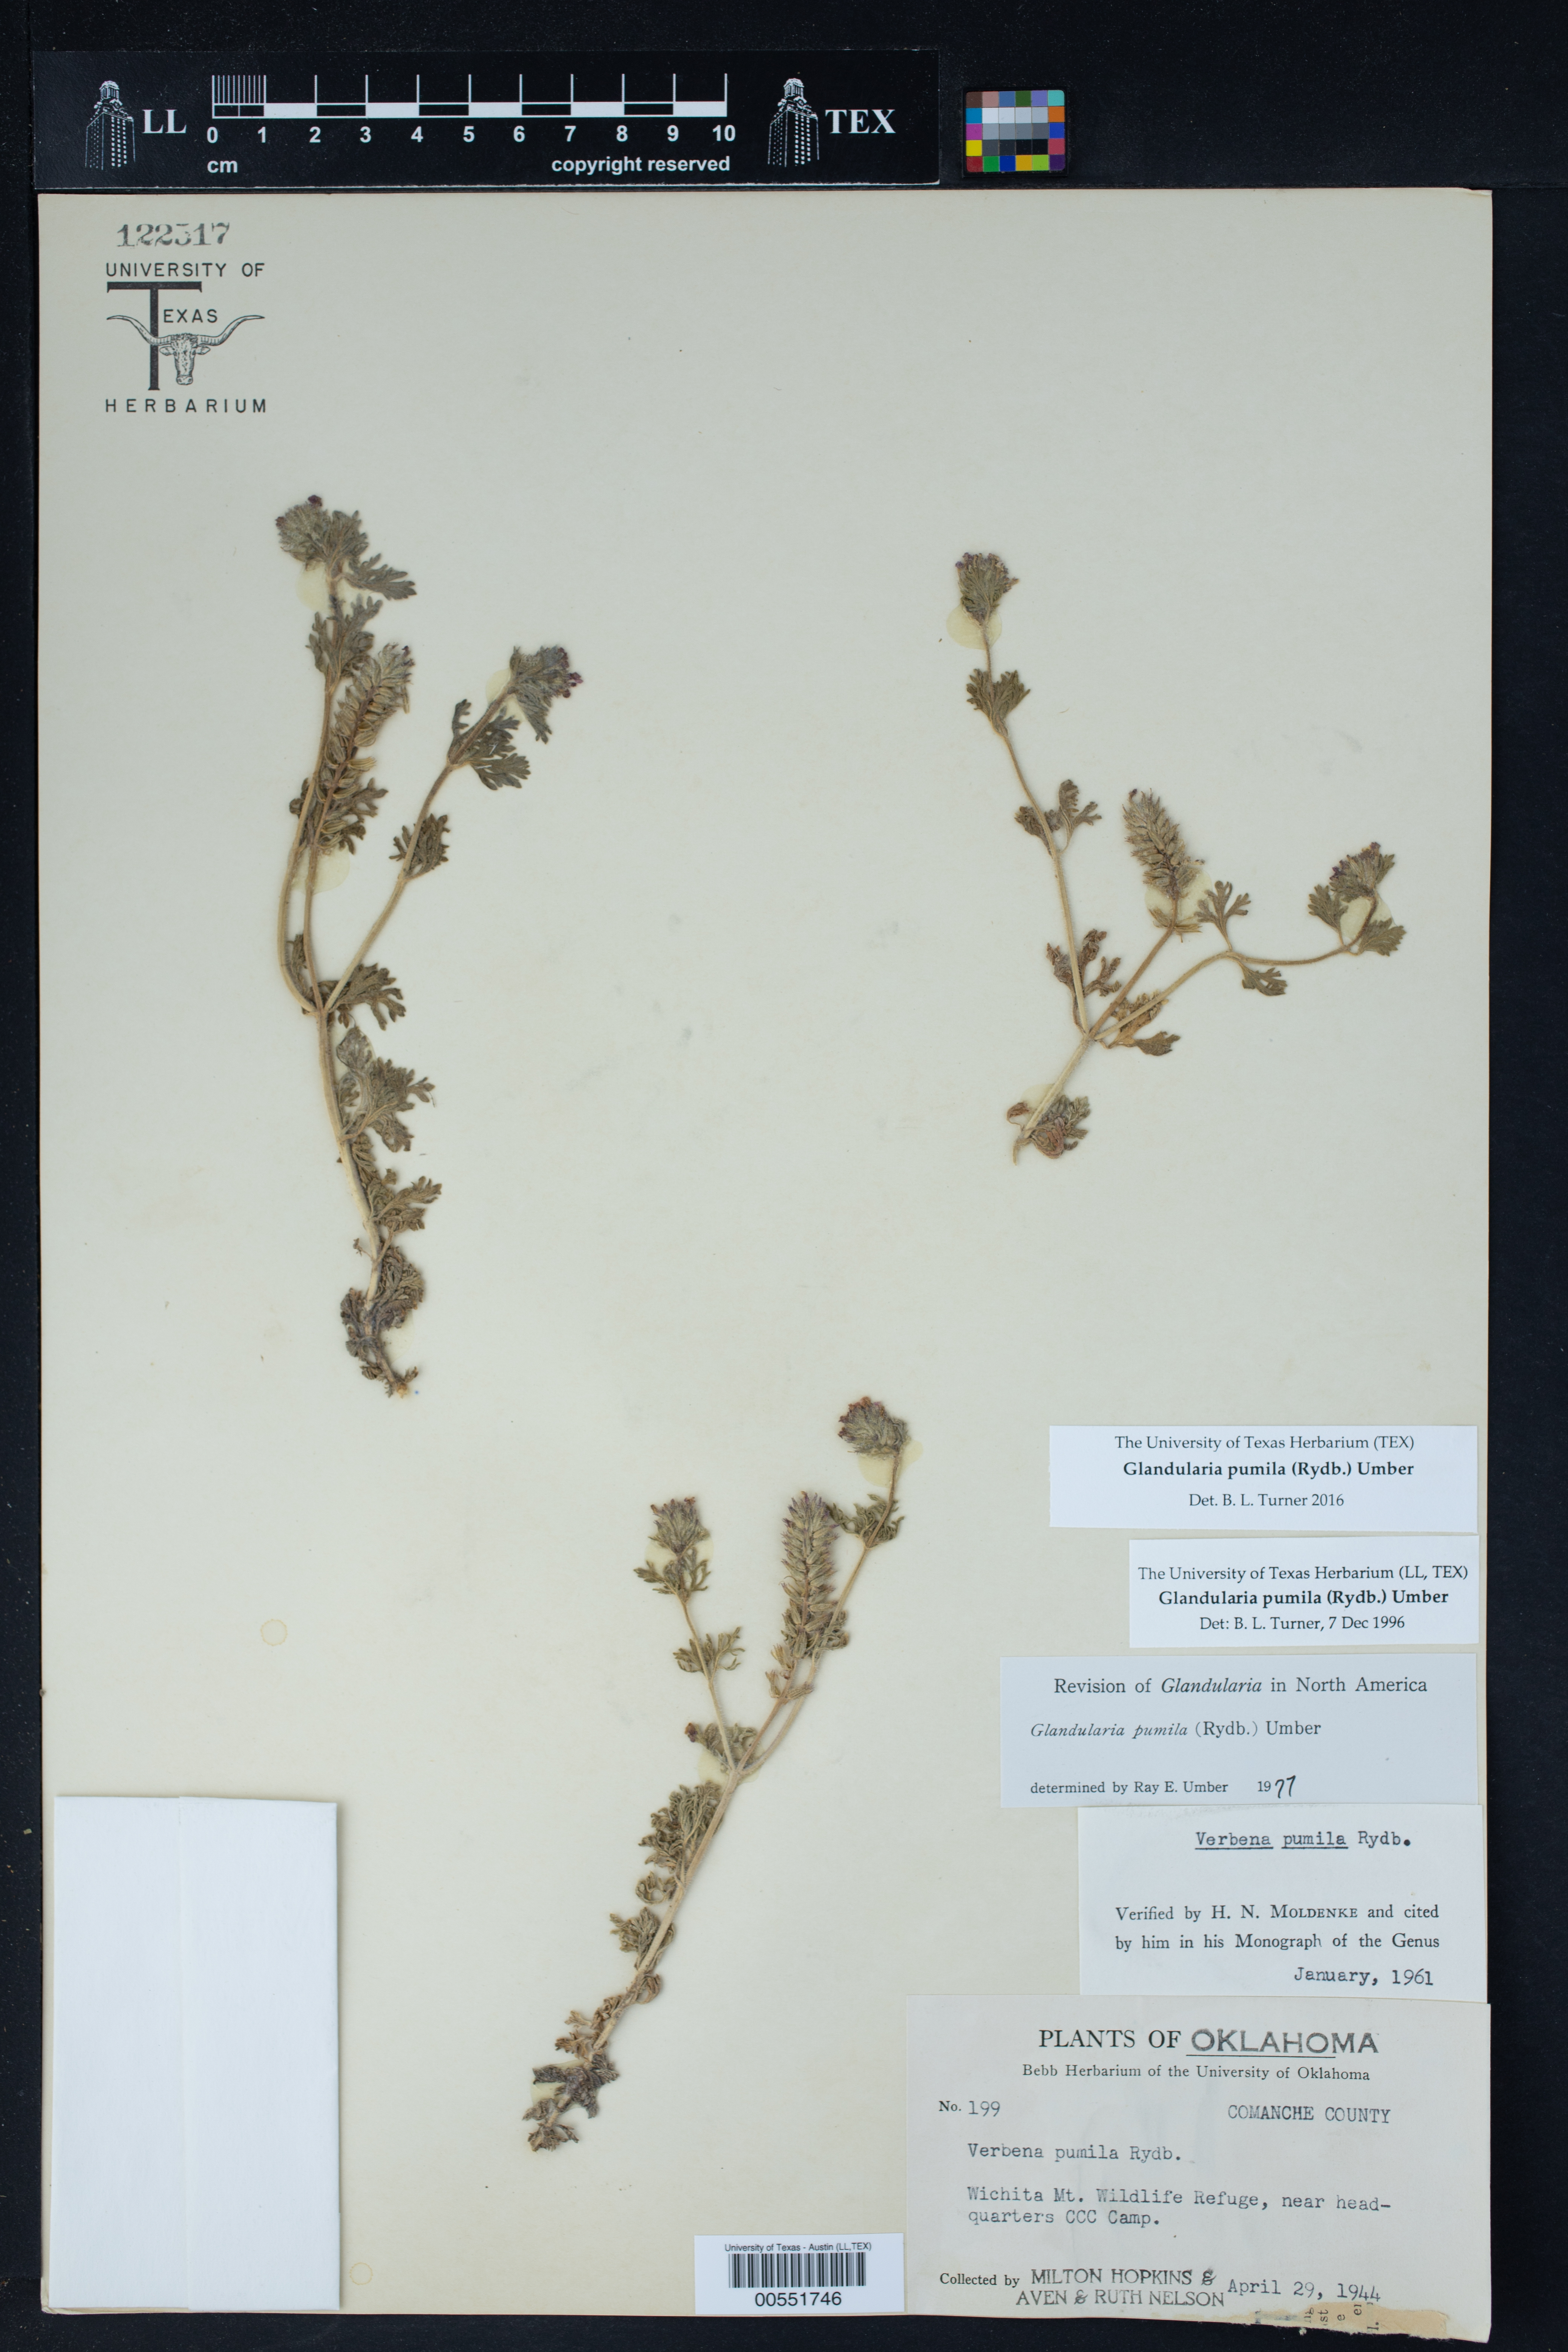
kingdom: Plantae
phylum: Tracheophyta
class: Magnoliopsida
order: Lamiales
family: Verbenaceae
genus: Verbena
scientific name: Verbena pumila
